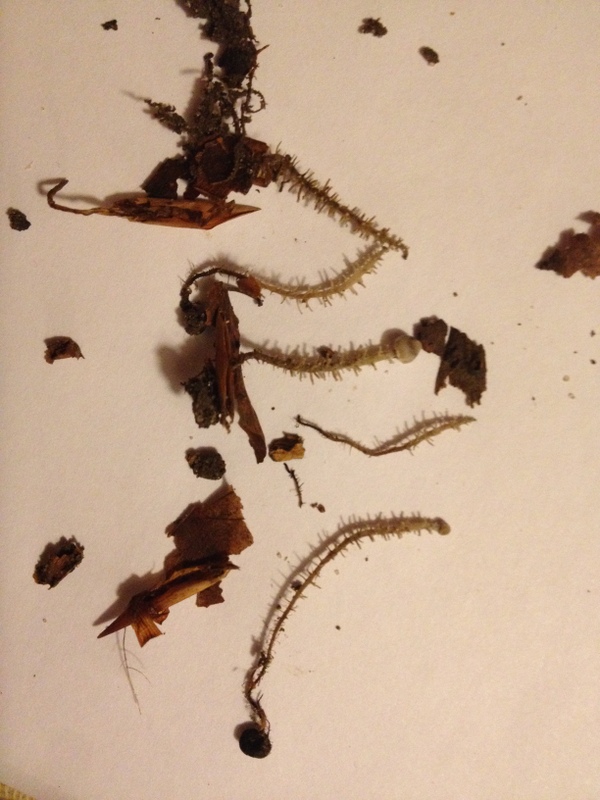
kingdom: Fungi
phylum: Basidiomycota
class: Agaricomycetes
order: Agaricales
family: Tricholomataceae
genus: Dendrocollybia
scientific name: Dendrocollybia racemosa
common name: grenet lighat
